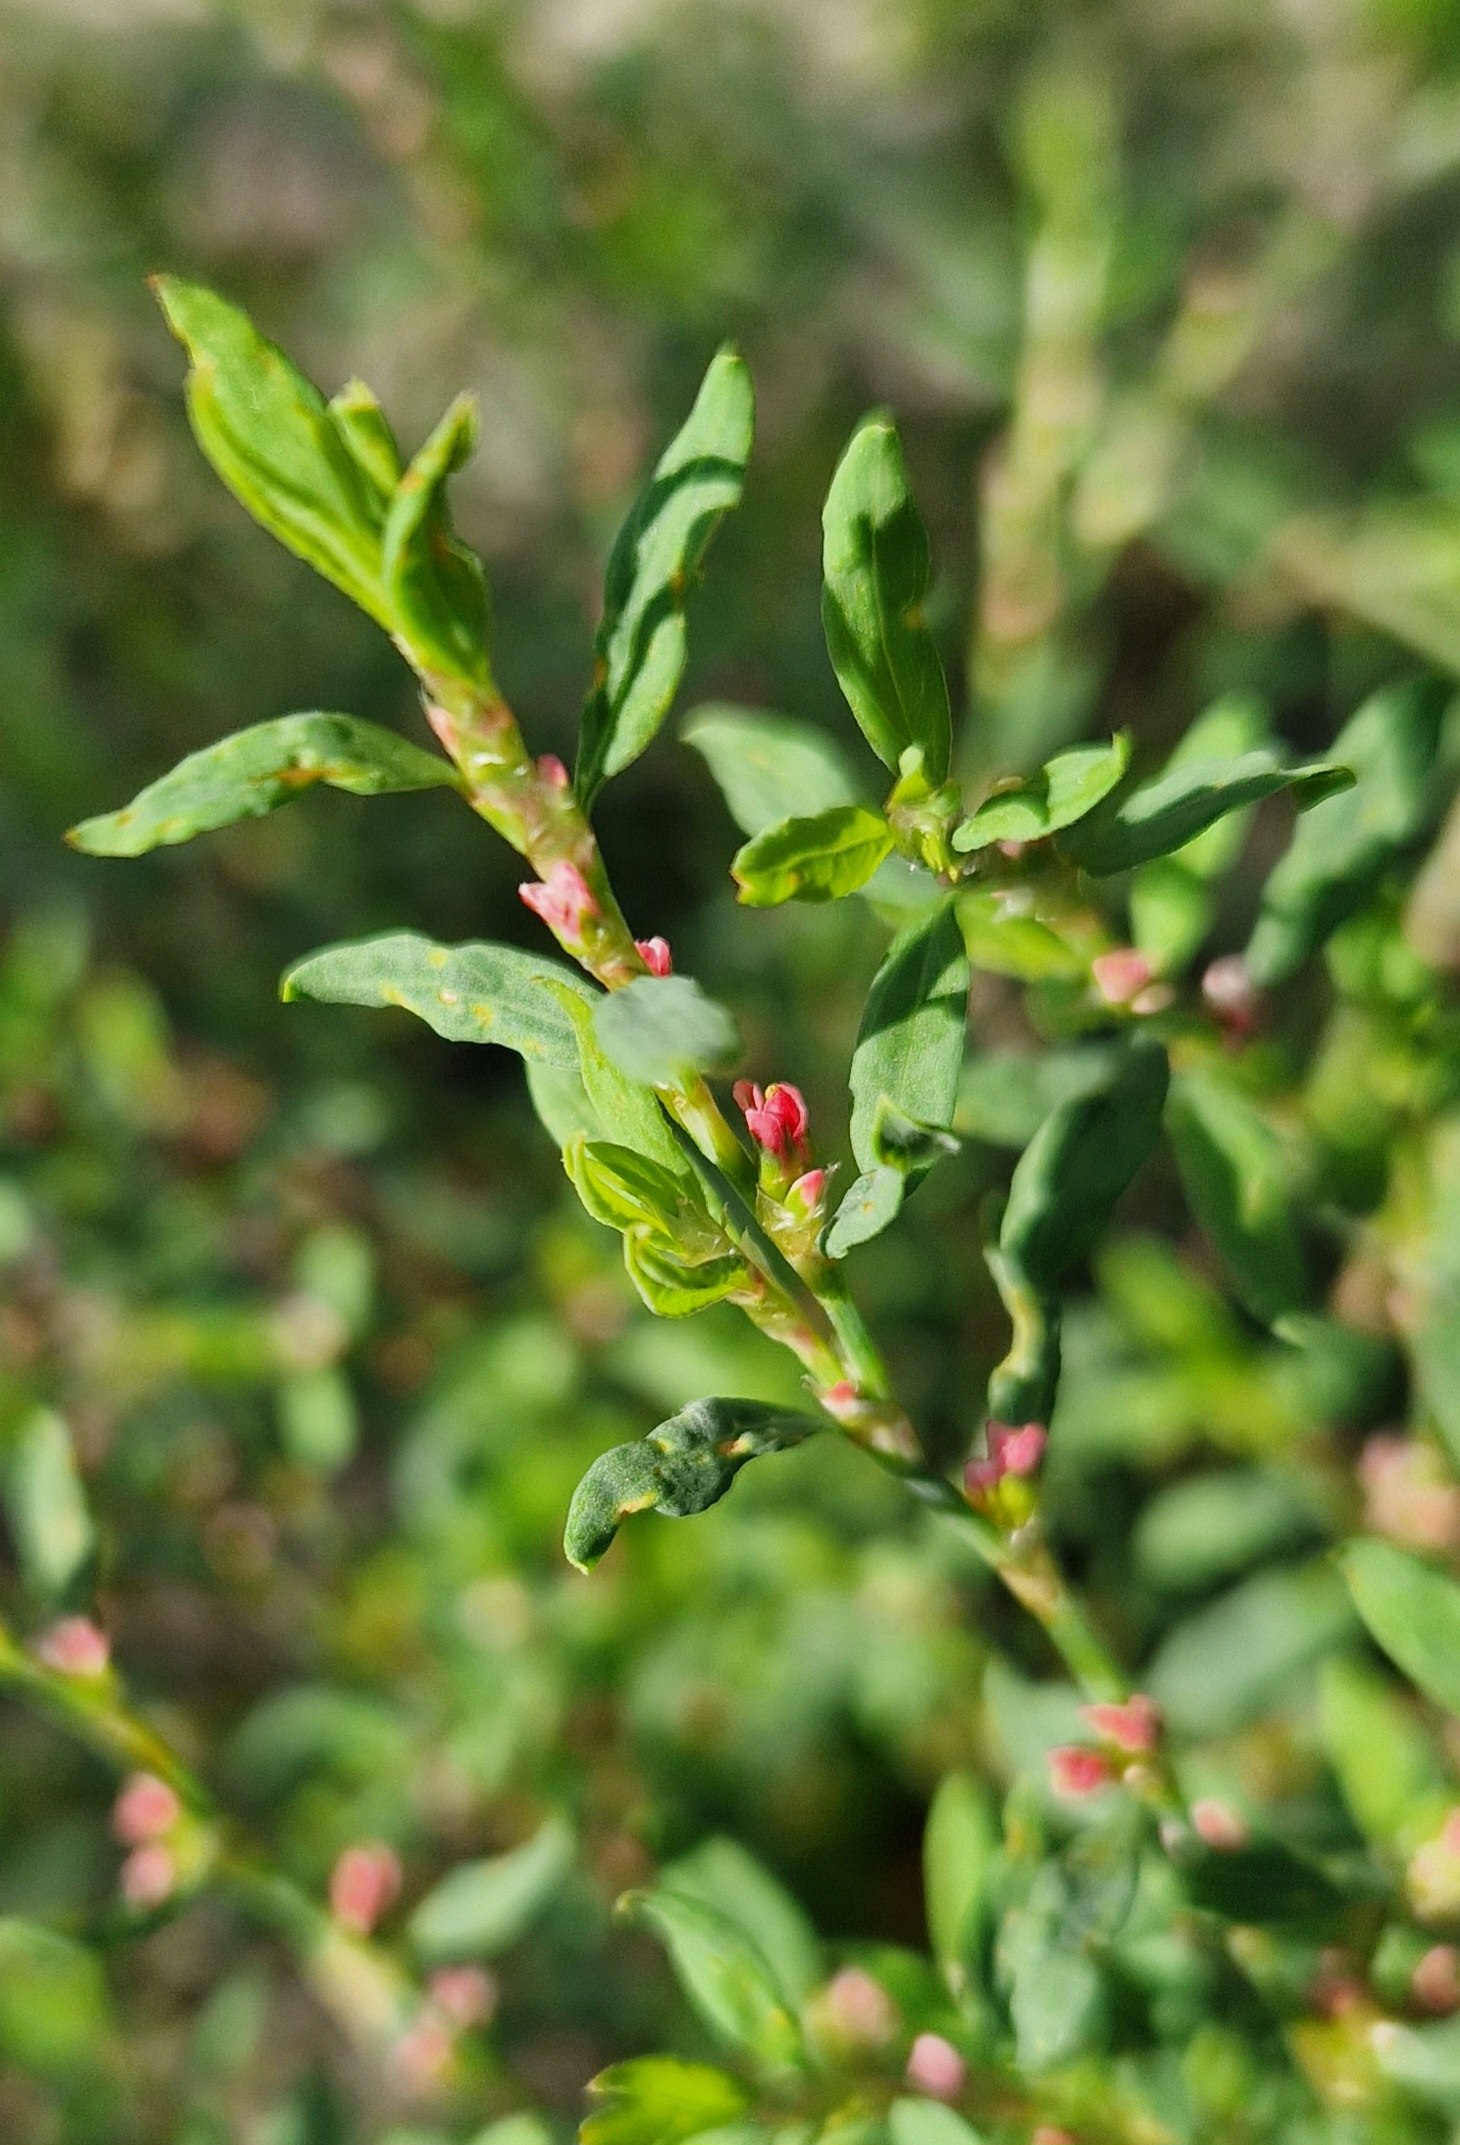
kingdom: Plantae
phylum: Tracheophyta
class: Magnoliopsida
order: Caryophyllales
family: Polygonaceae
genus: Polygonum
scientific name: Polygonum aviculare
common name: Vej-pileurt
